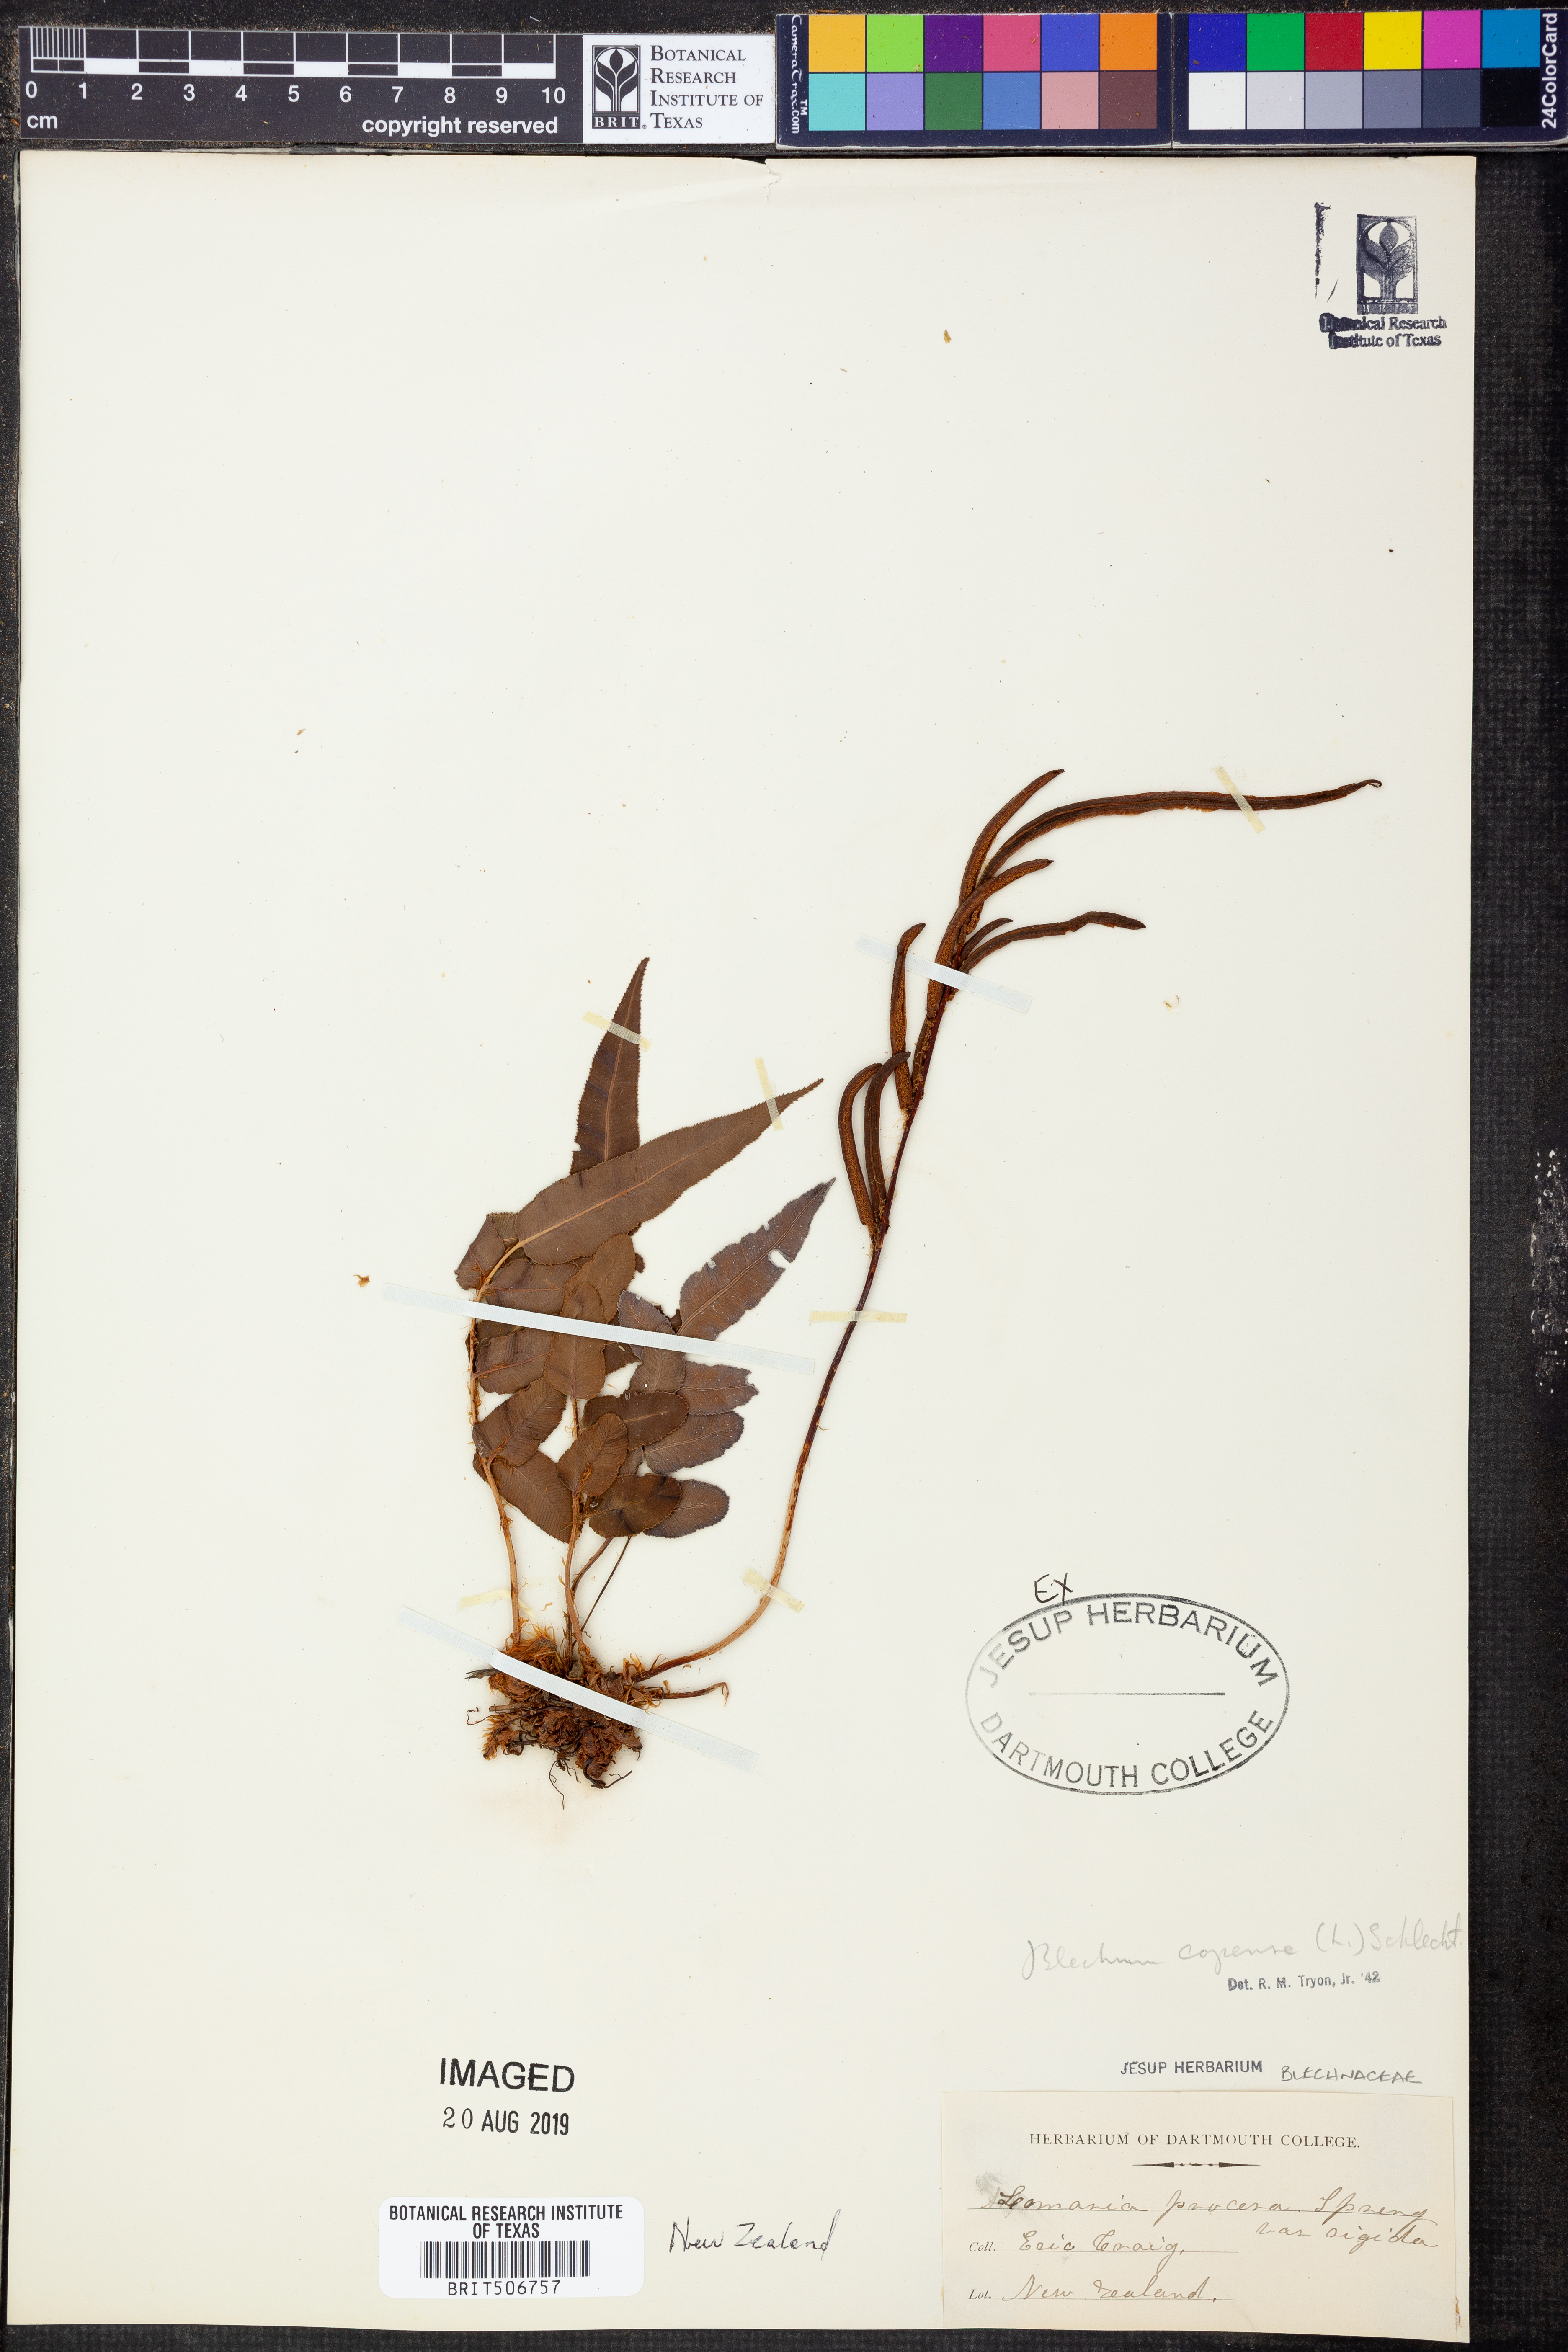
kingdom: Plantae
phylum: Tracheophyta
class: Polypodiopsida
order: Polypodiales
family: Blechnaceae
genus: Parablechnum
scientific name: Parablechnum capense
